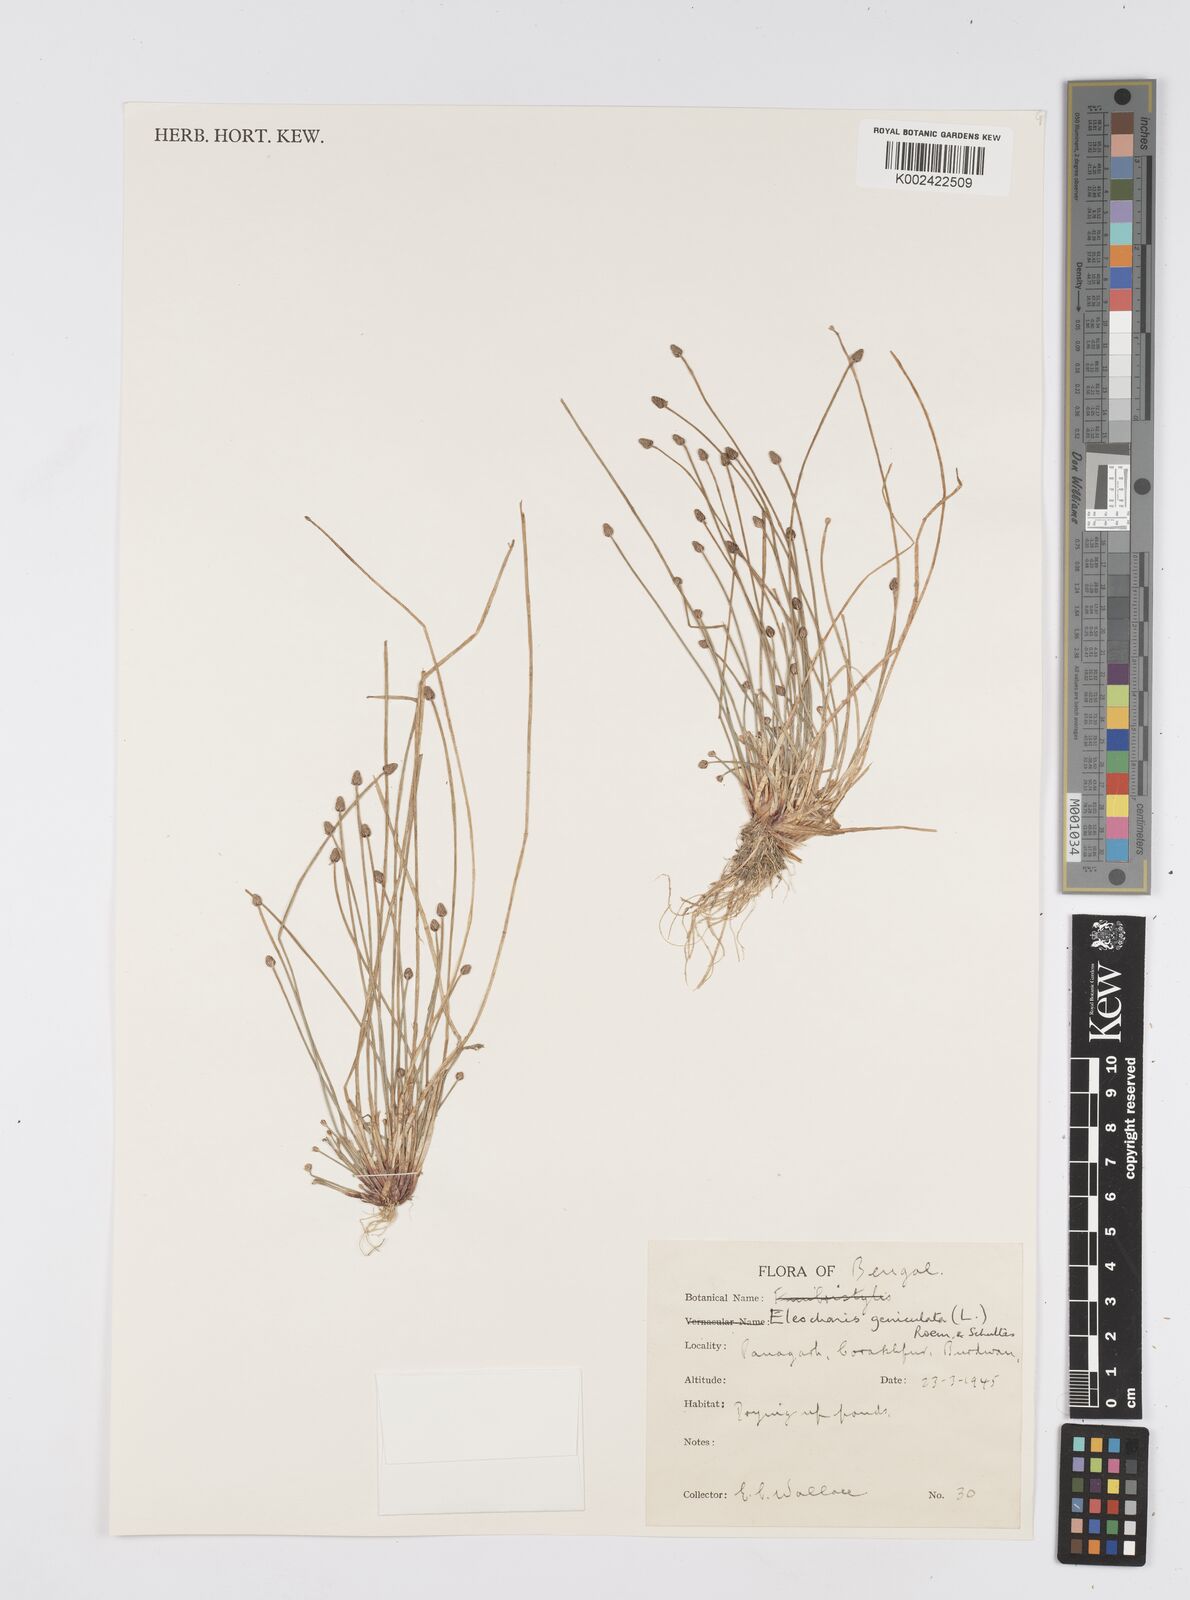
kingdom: Plantae
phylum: Tracheophyta
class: Liliopsida
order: Poales
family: Cyperaceae
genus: Eleocharis
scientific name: Eleocharis geniculata
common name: Canada spikesedge
